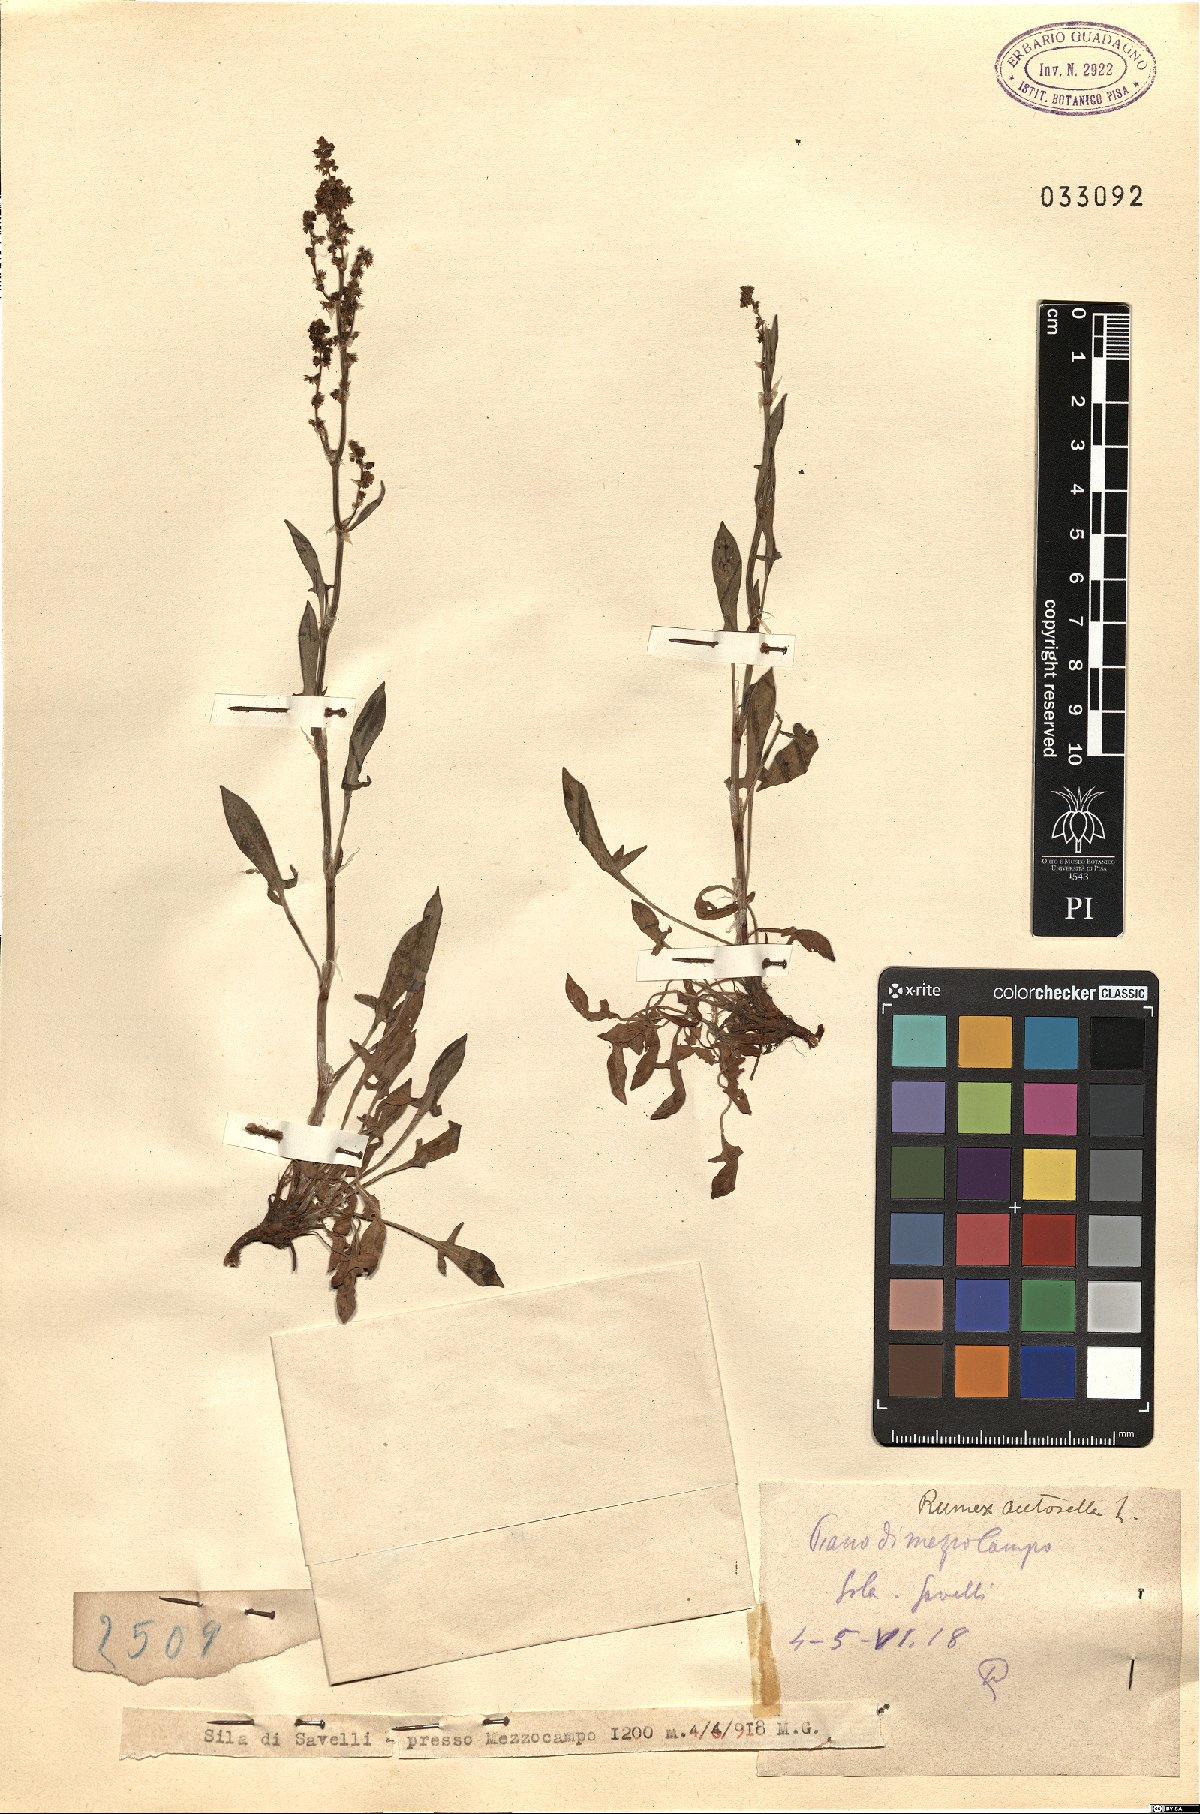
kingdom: Plantae
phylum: Tracheophyta
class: Magnoliopsida
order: Caryophyllales
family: Polygonaceae
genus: Rumex
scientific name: Rumex acetosella
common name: Common sheep sorrel
